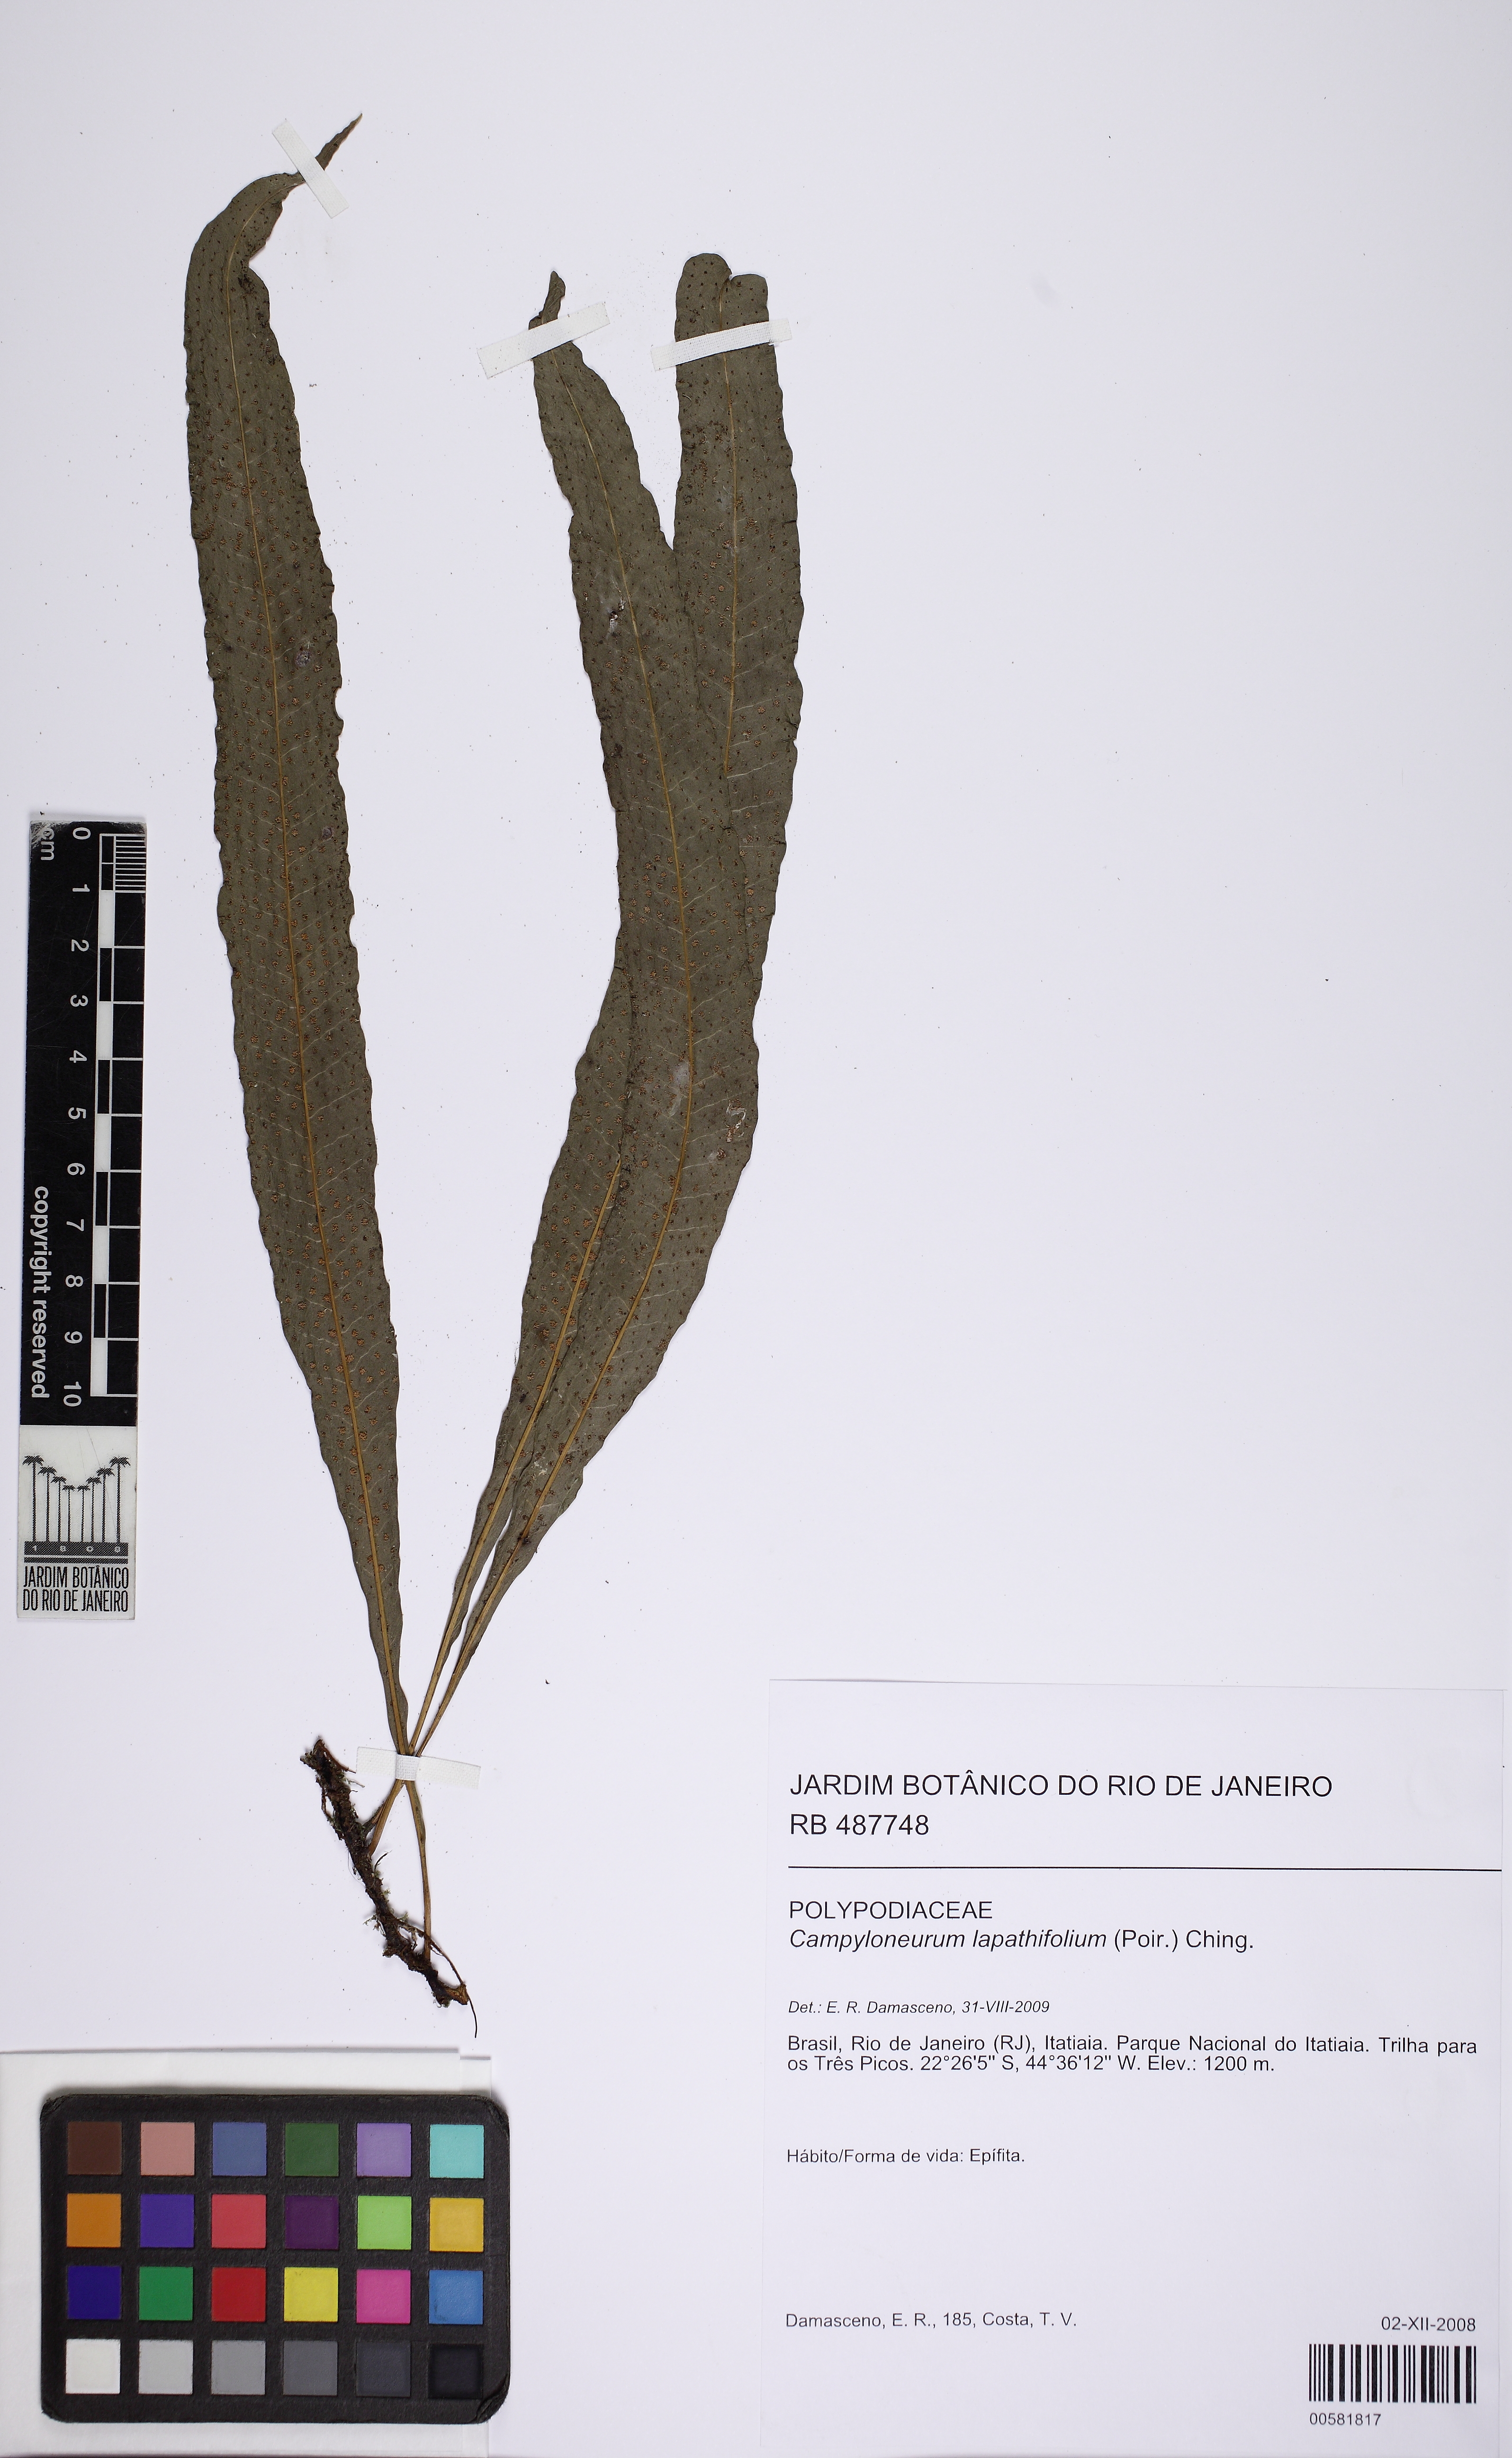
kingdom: Plantae
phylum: Tracheophyta
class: Polypodiopsida
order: Polypodiales
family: Polypodiaceae
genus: Campyloneurum
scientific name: Campyloneurum repens
